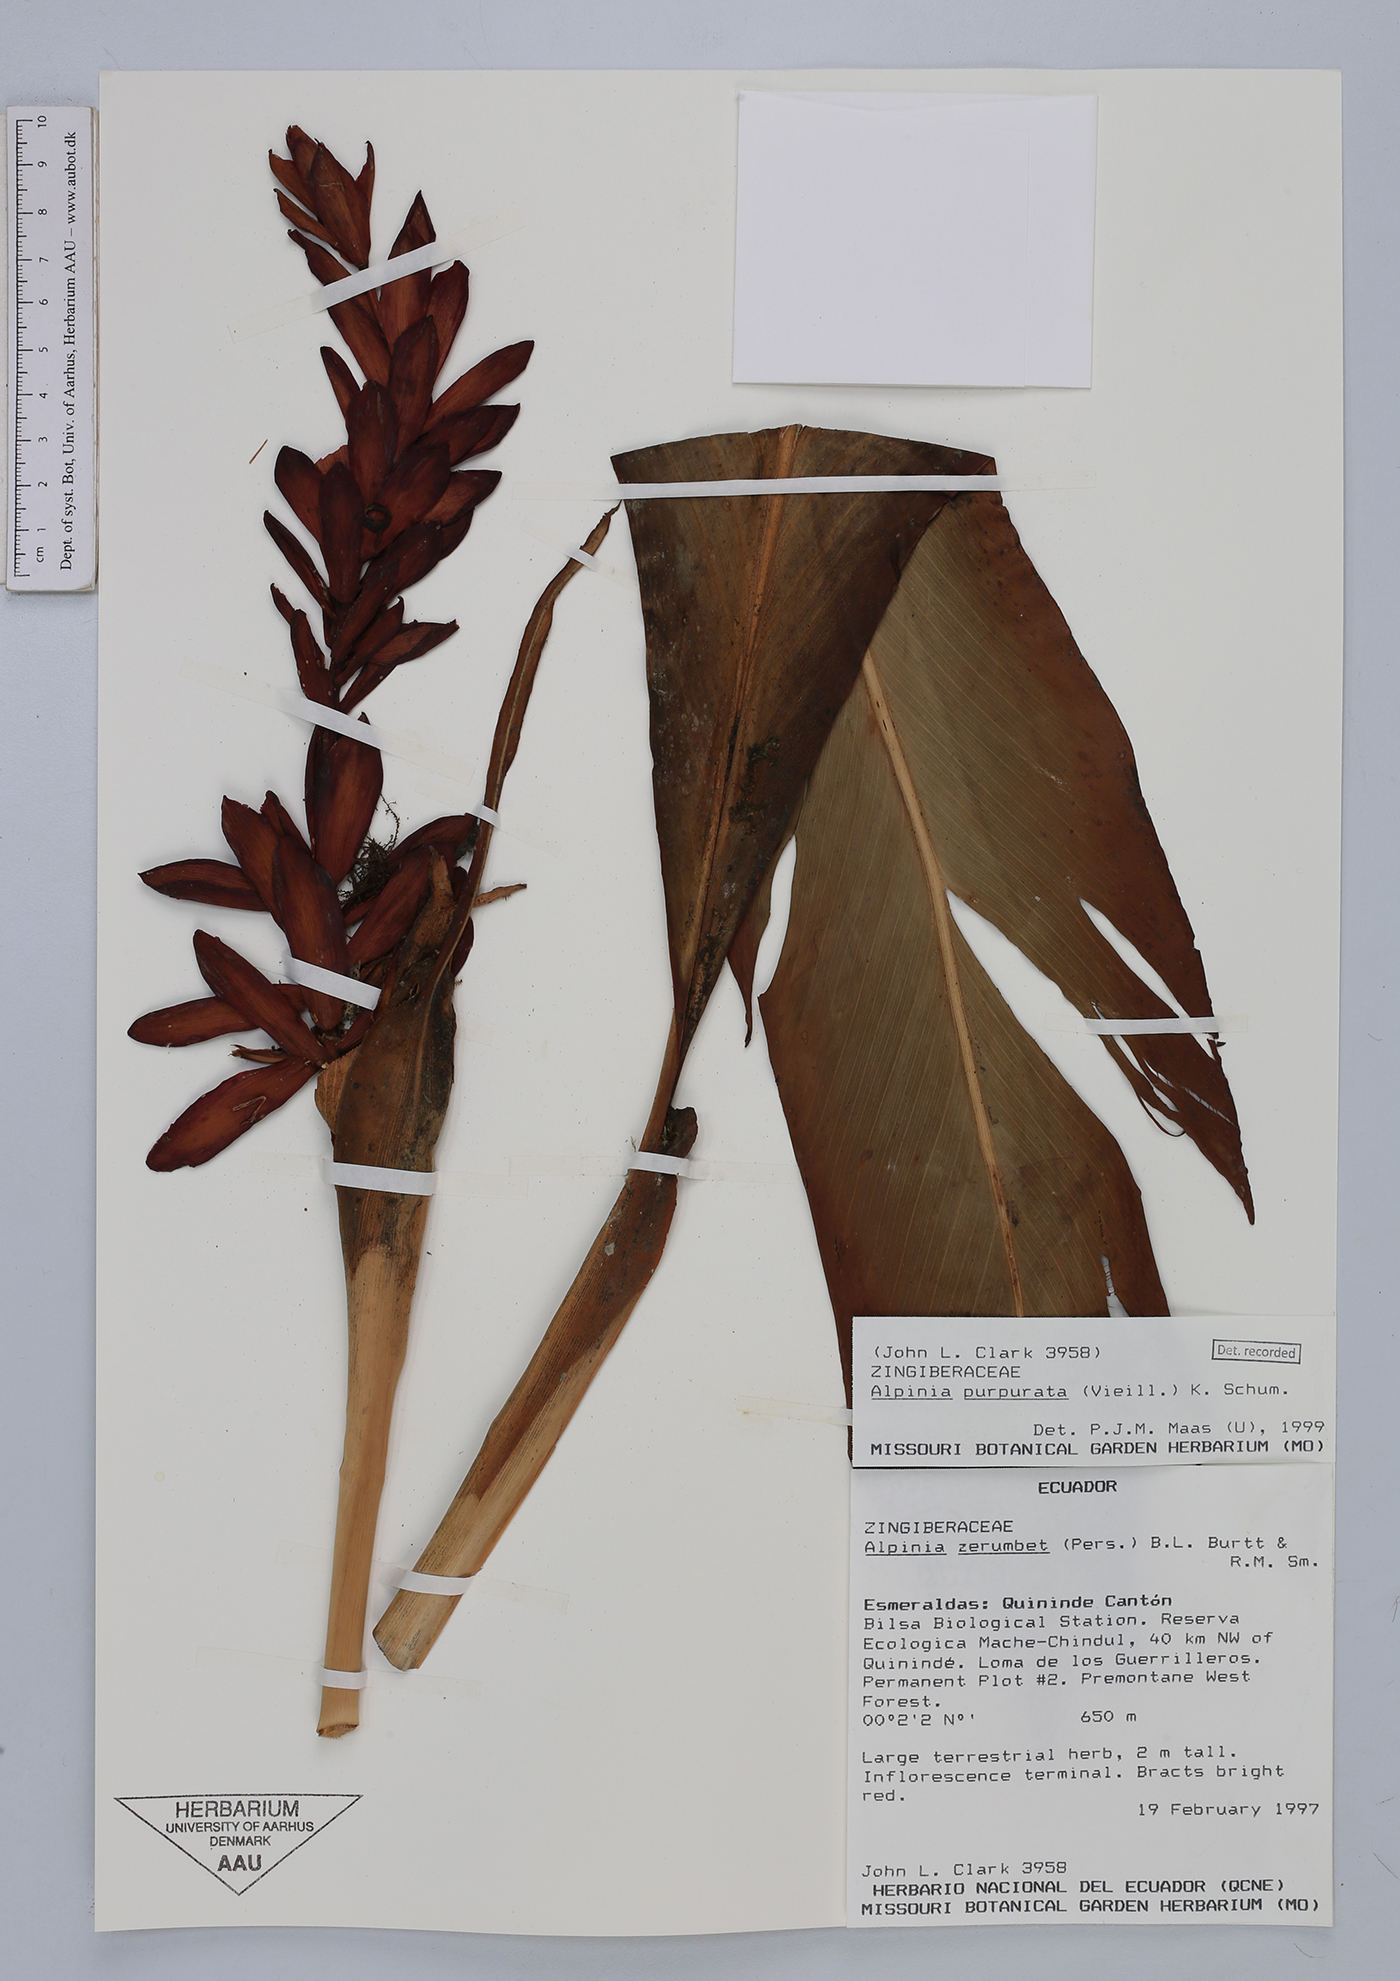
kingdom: Plantae
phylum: Tracheophyta
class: Liliopsida
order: Zingiberales
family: Zingiberaceae
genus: Alpinia
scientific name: Alpinia purpurata
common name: Red ginger
